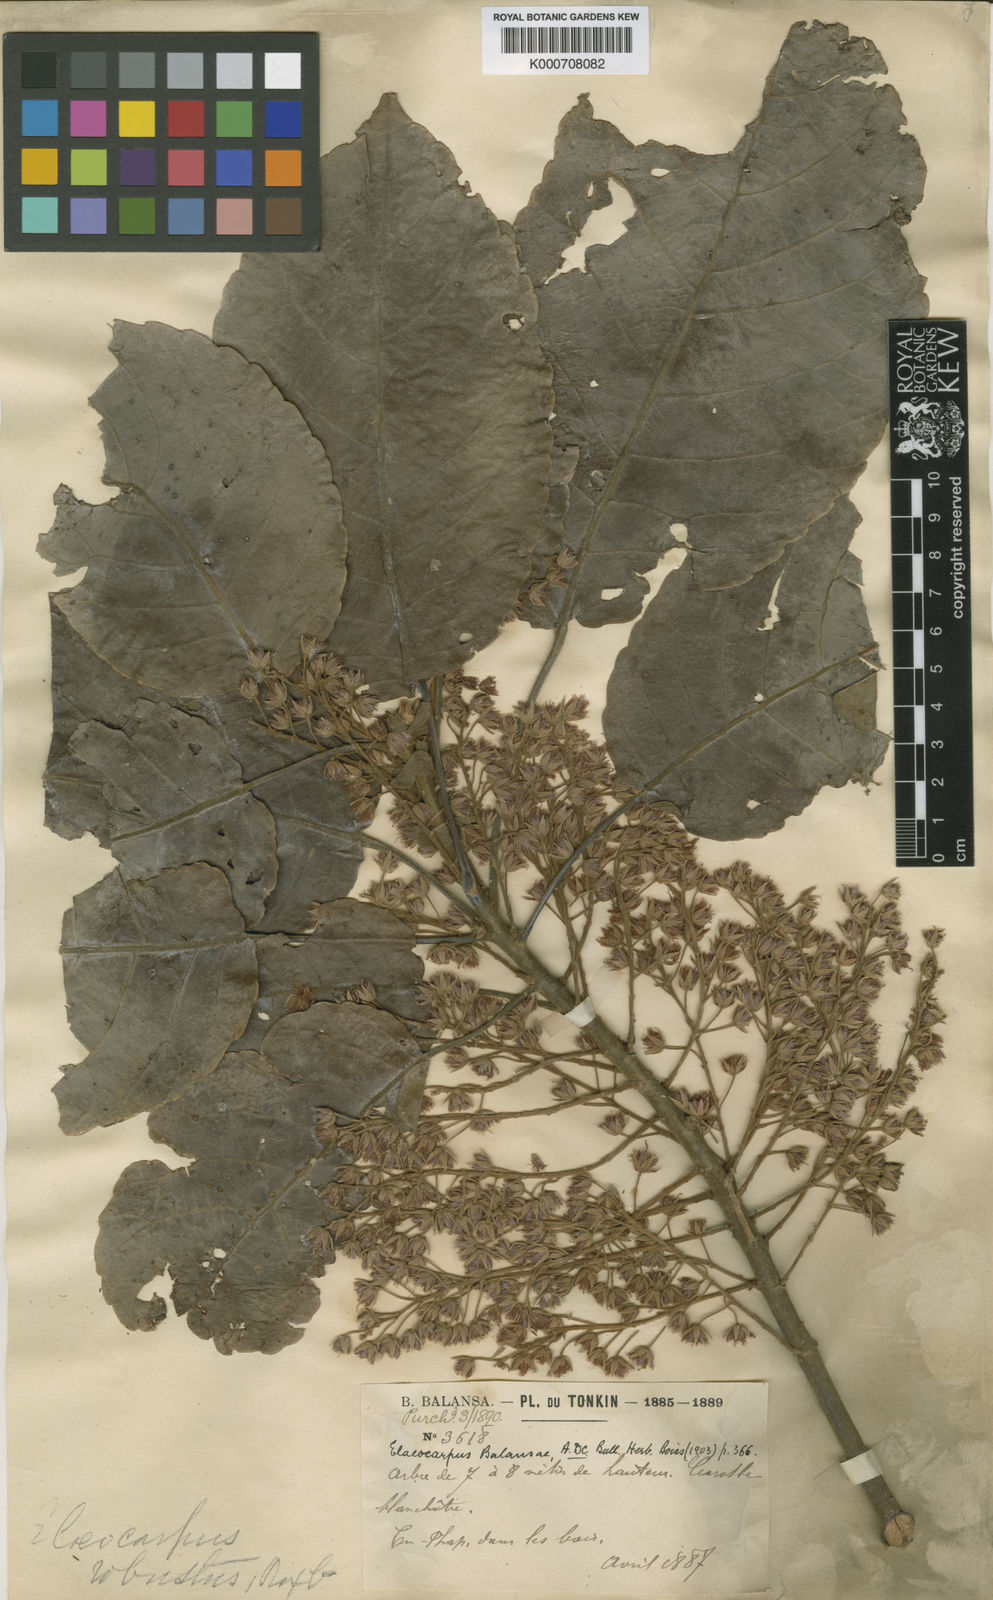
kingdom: Plantae
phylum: Tracheophyta
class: Magnoliopsida
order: Oxalidales
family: Elaeocarpaceae
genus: Elaeocarpus
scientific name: Elaeocarpus balansae
